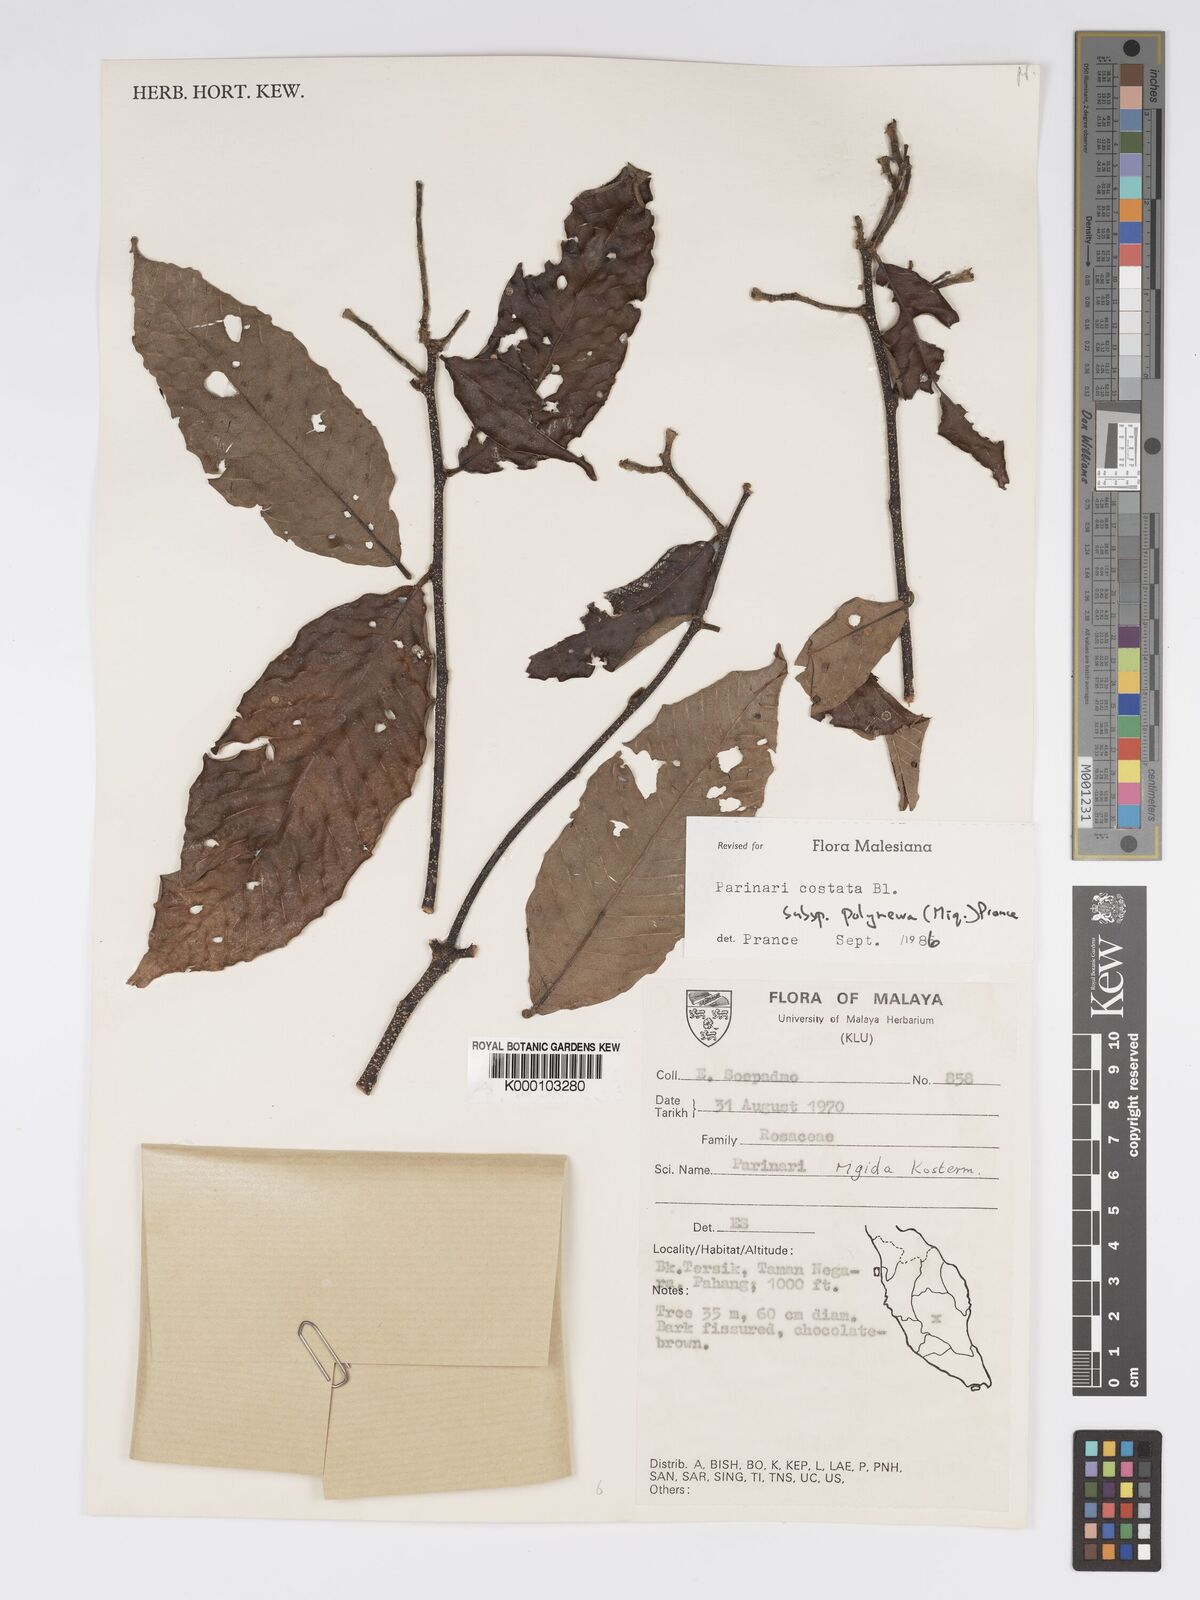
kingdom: Plantae
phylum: Tracheophyta
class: Magnoliopsida
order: Malpighiales
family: Chrysobalanaceae
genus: Parinari
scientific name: Parinari costata
